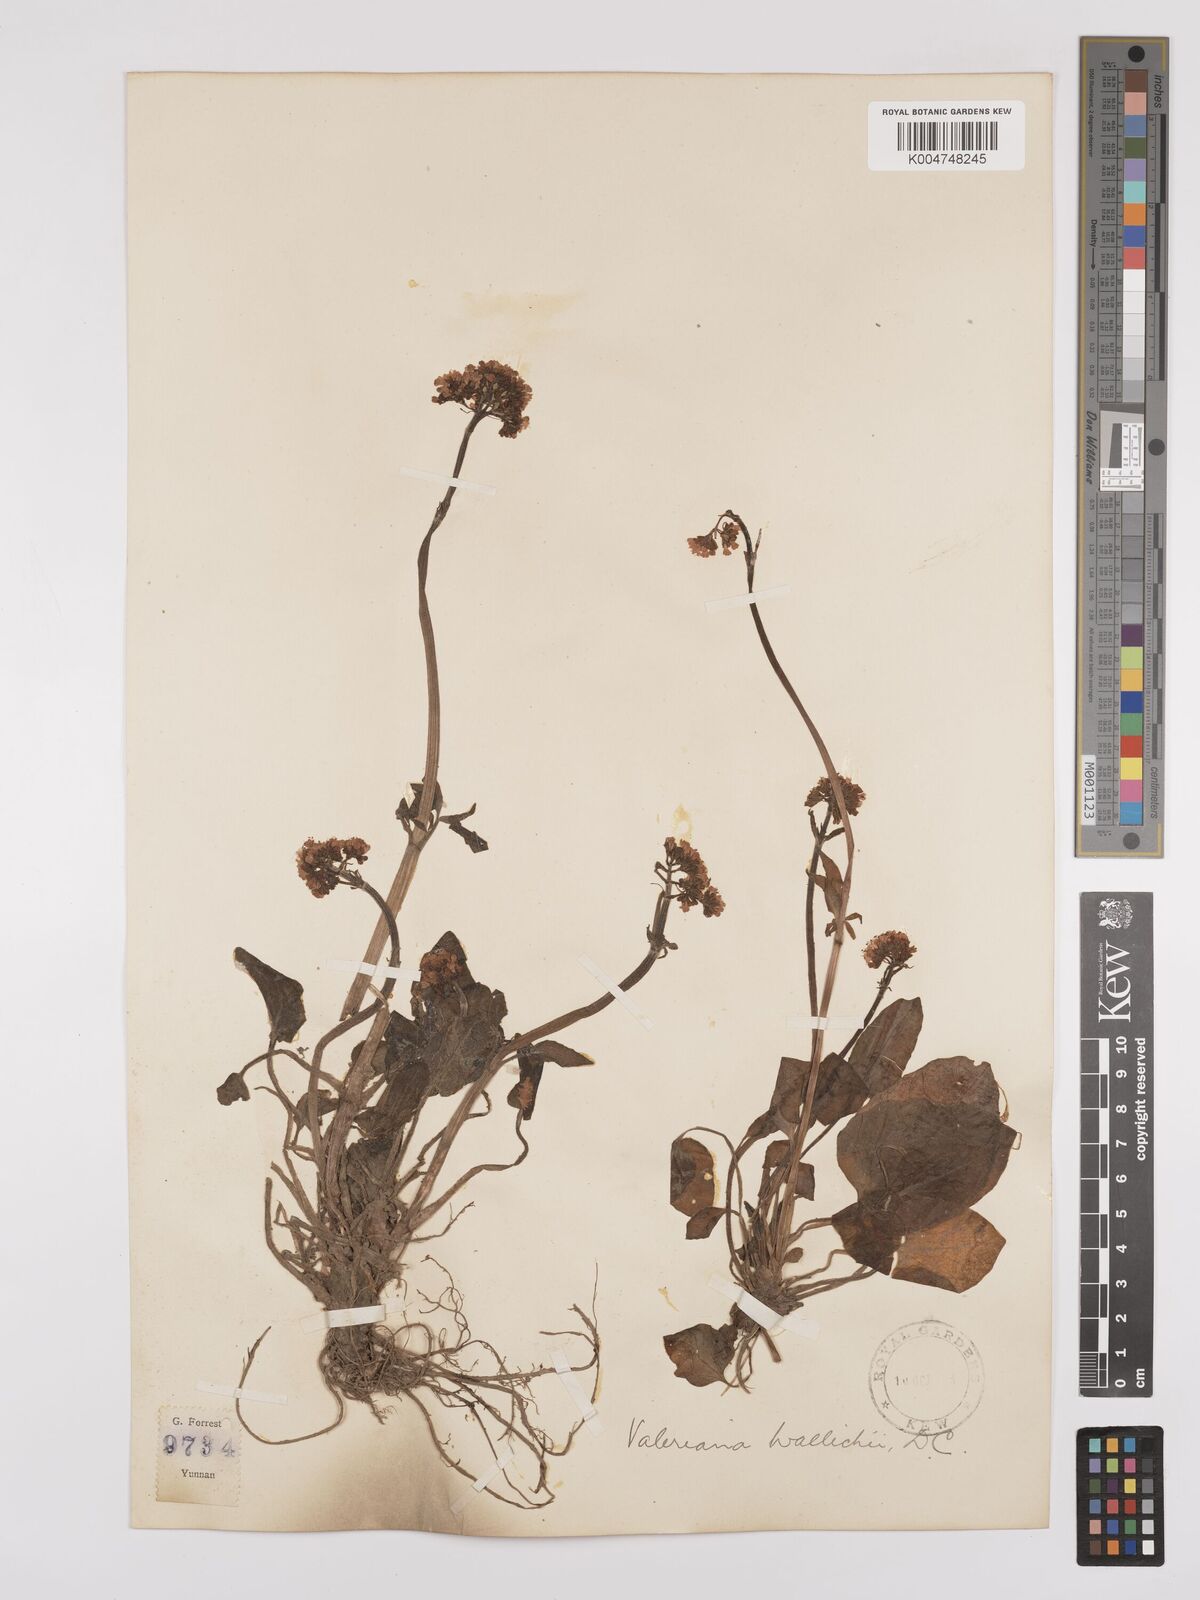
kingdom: Plantae
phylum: Tracheophyta
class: Magnoliopsida
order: Dipsacales
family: Caprifoliaceae
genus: Valeriana
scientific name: Valeriana
